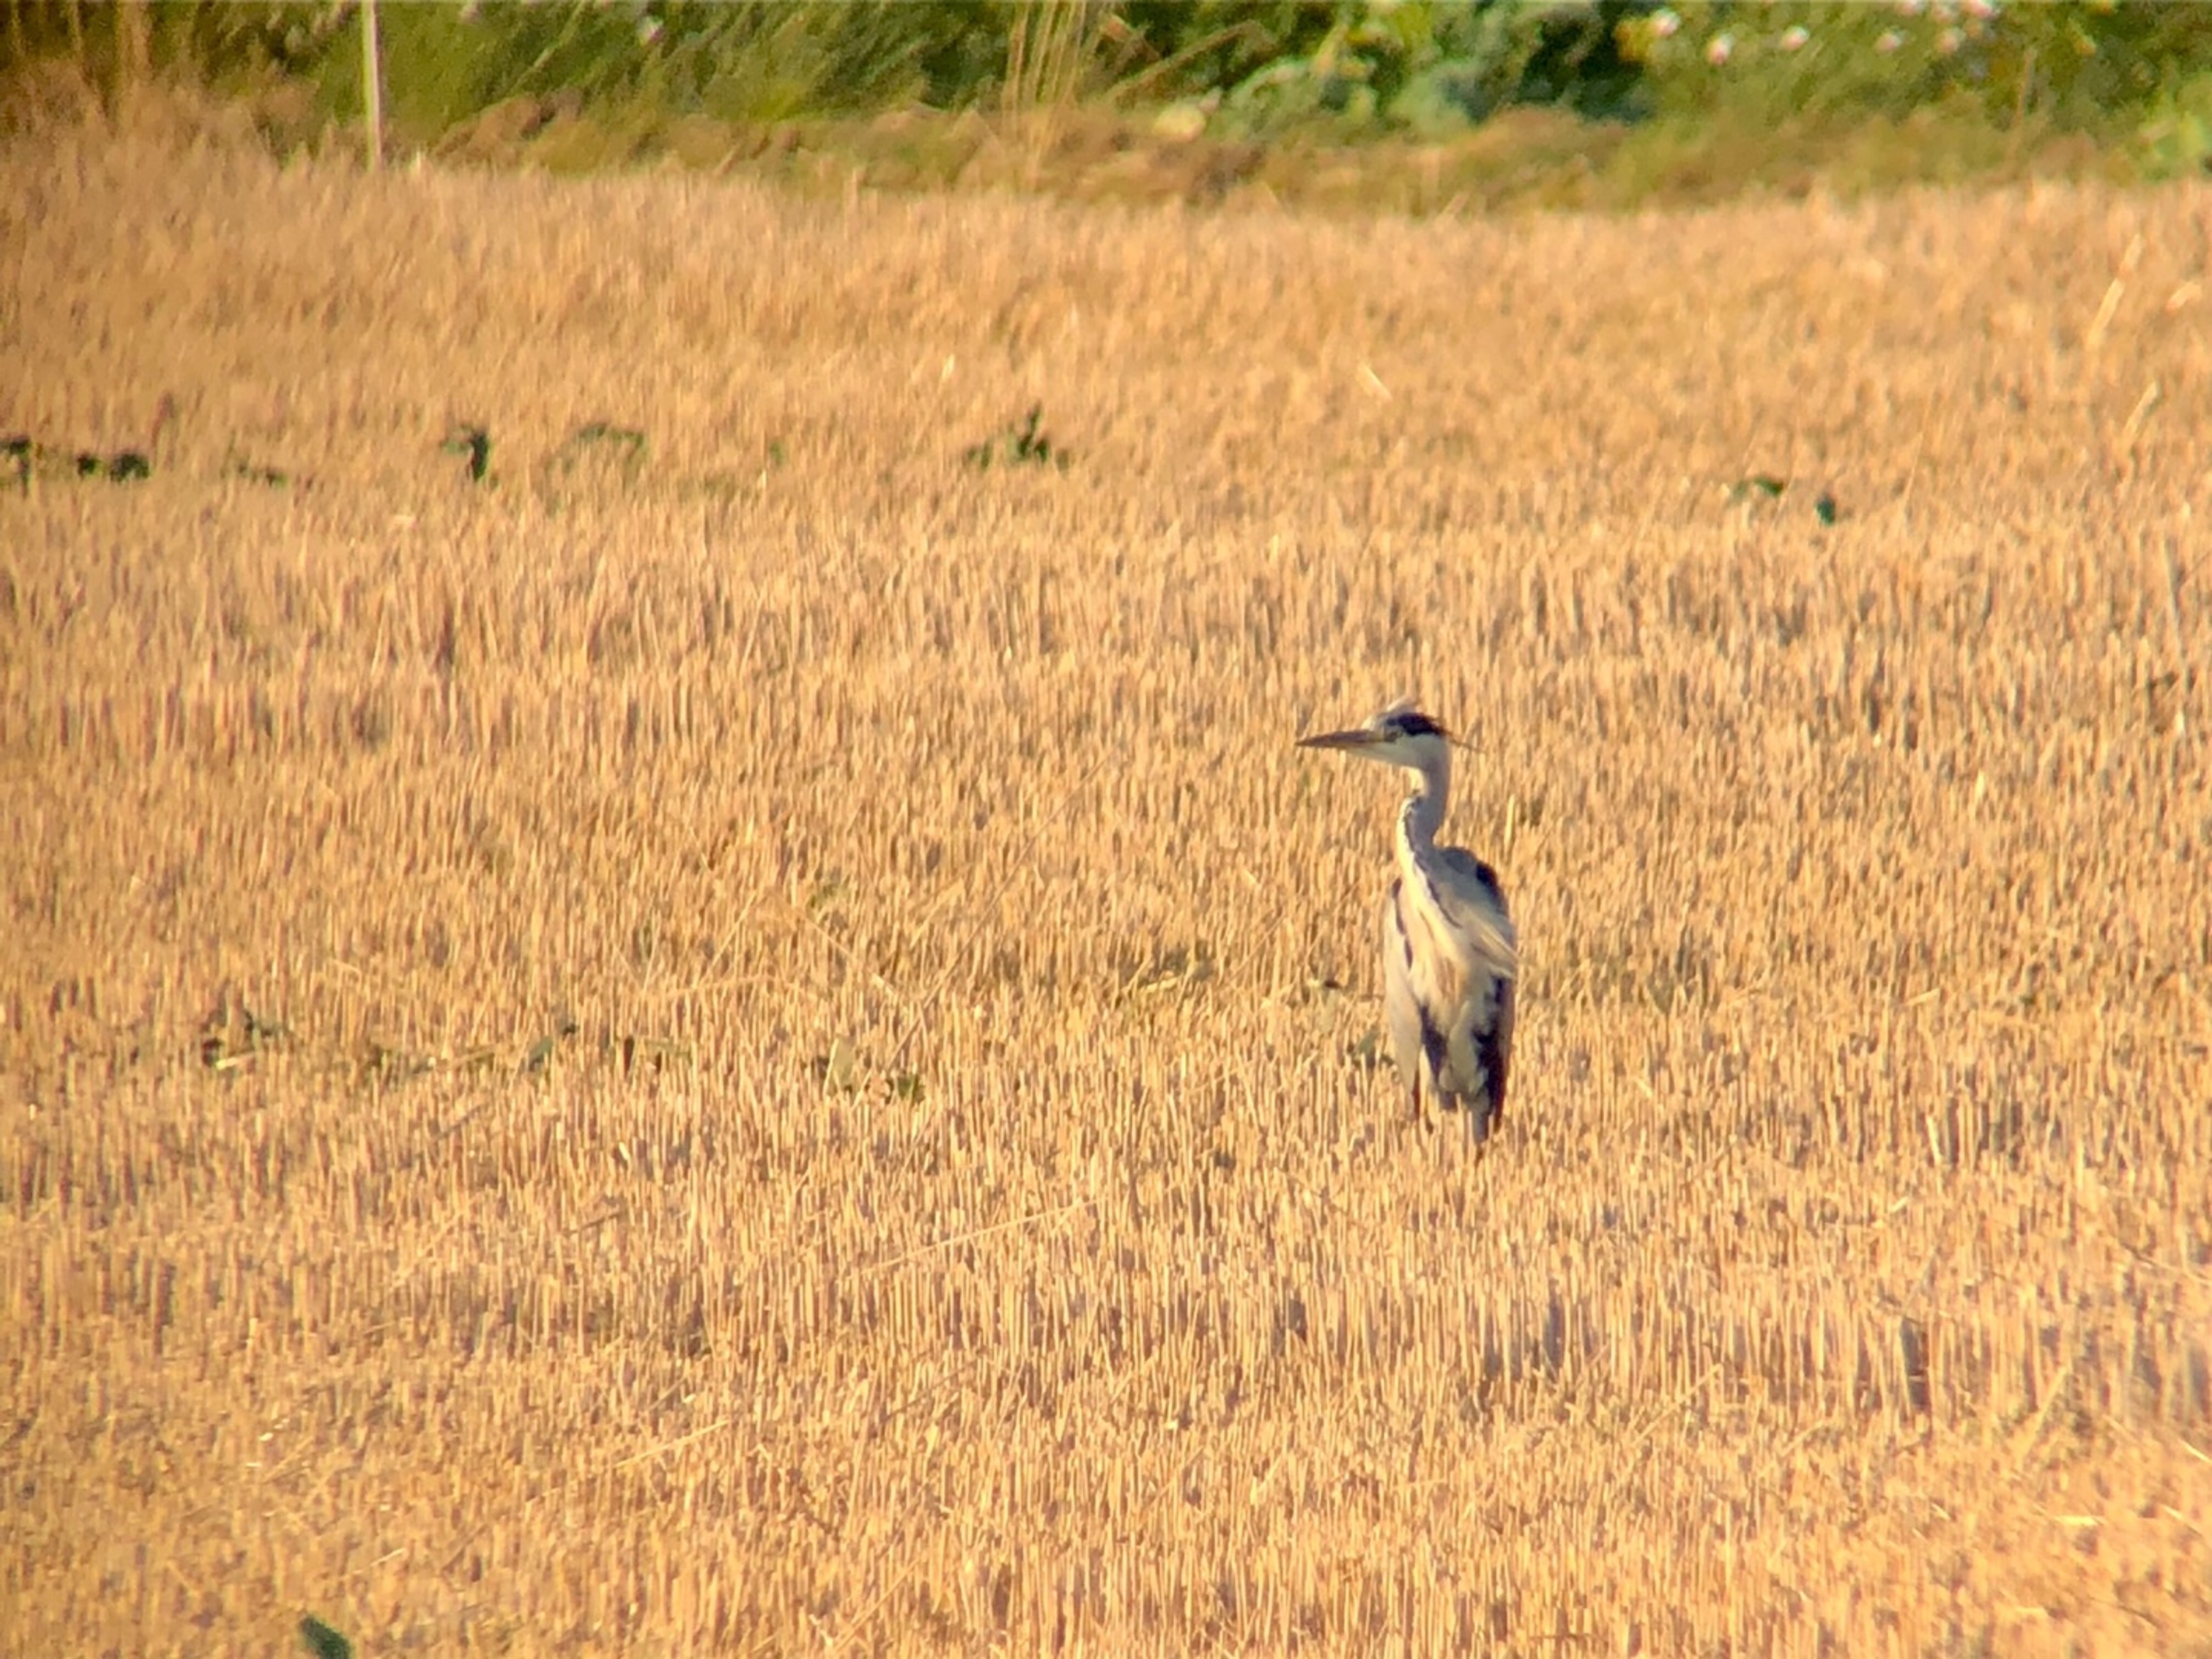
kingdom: Animalia
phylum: Chordata
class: Aves
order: Pelecaniformes
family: Ardeidae
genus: Ardea
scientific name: Ardea cinerea
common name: Fiskehejre
